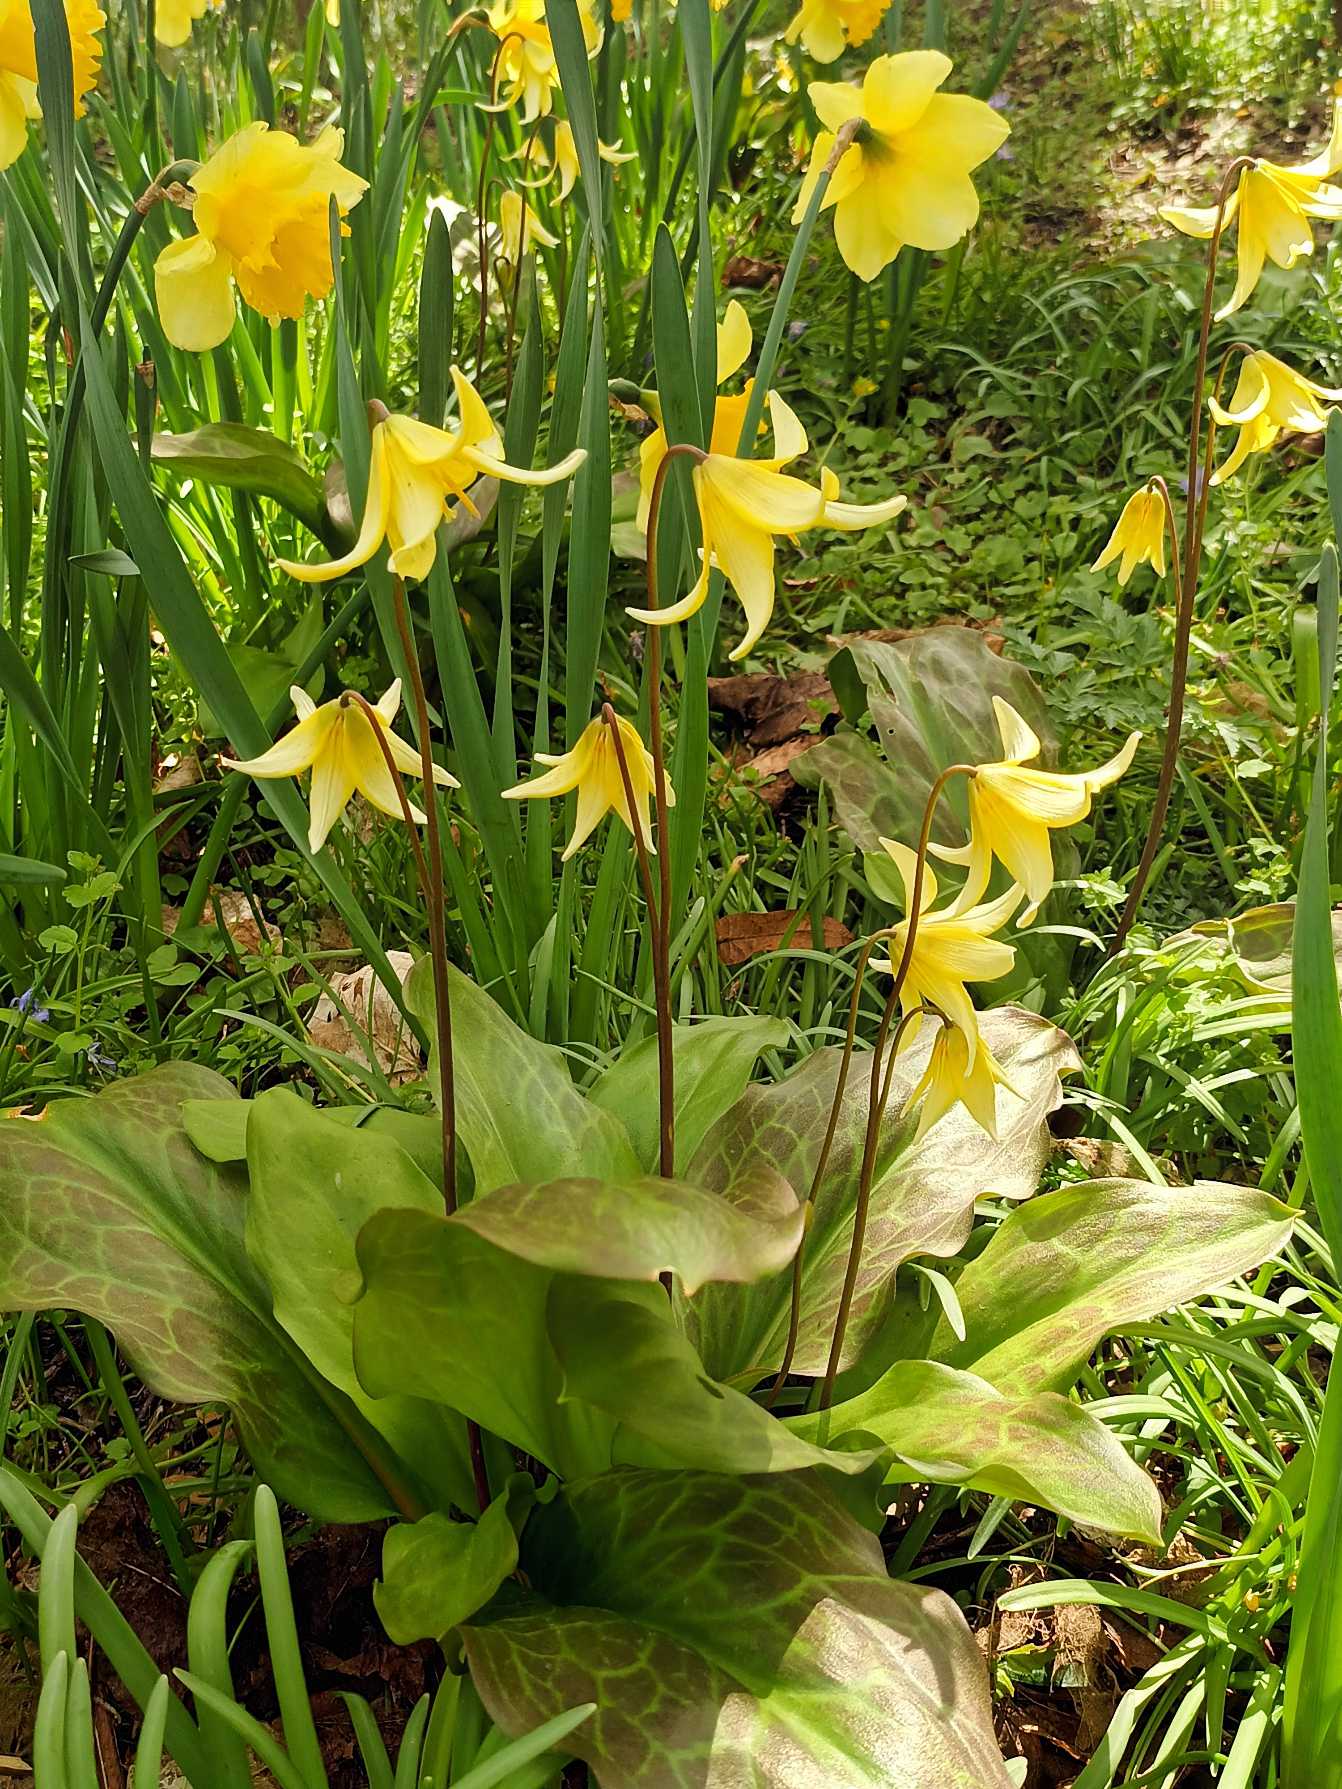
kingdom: Plantae
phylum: Tracheophyta
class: Liliopsida
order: Liliales
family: Liliaceae
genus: Erythronium
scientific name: Erythronium
